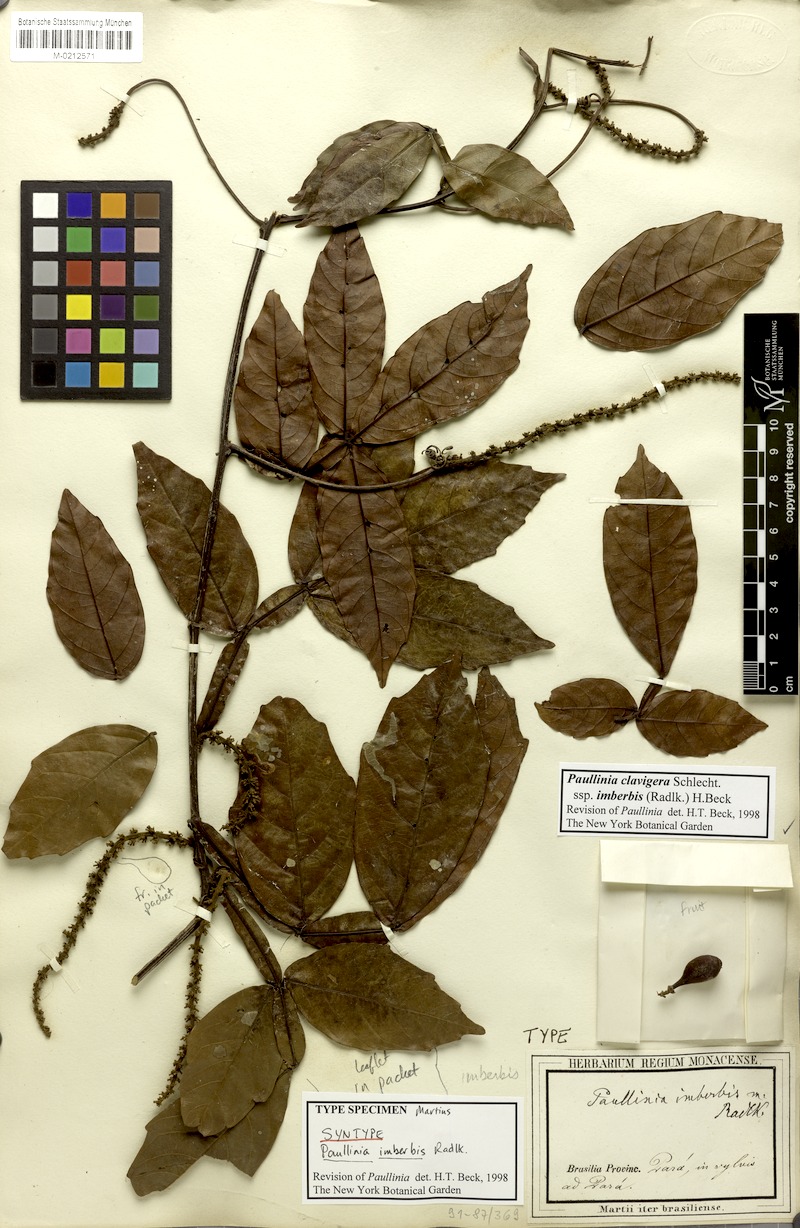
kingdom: Plantae
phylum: Tracheophyta
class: Magnoliopsida
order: Sapindales
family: Sapindaceae
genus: Paullinia
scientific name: Paullinia clavigera
